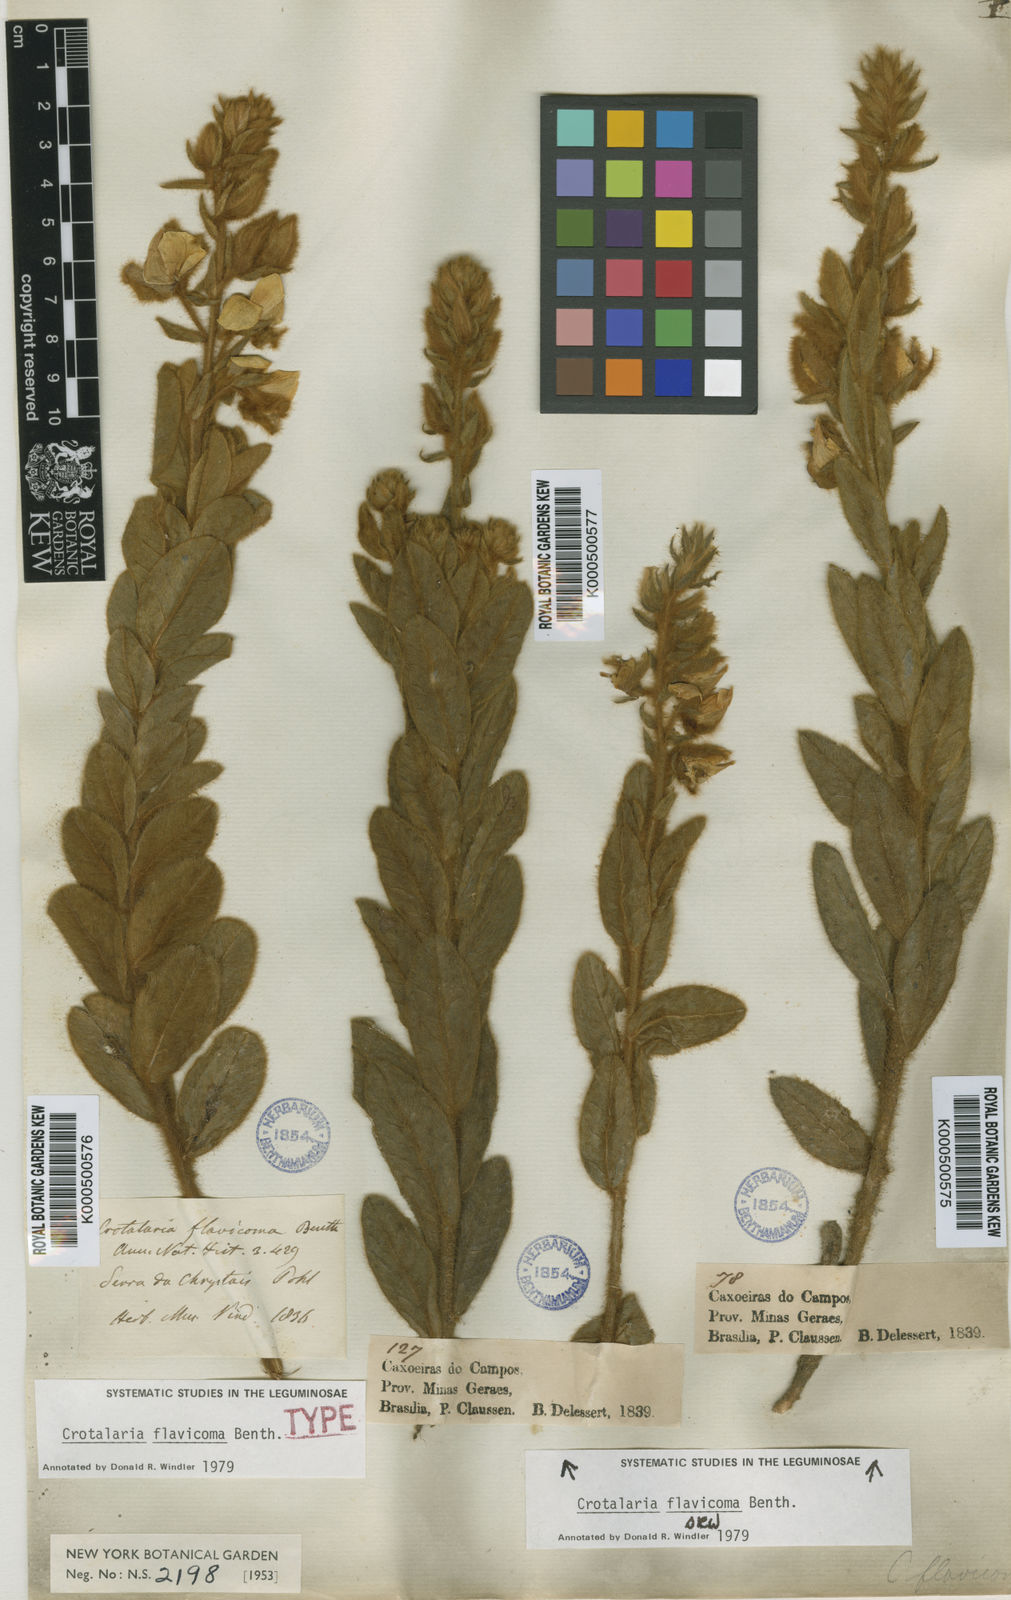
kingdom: Plantae
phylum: Tracheophyta
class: Magnoliopsida
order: Fabales
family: Fabaceae
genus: Crotalaria
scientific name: Crotalaria flavicoma
